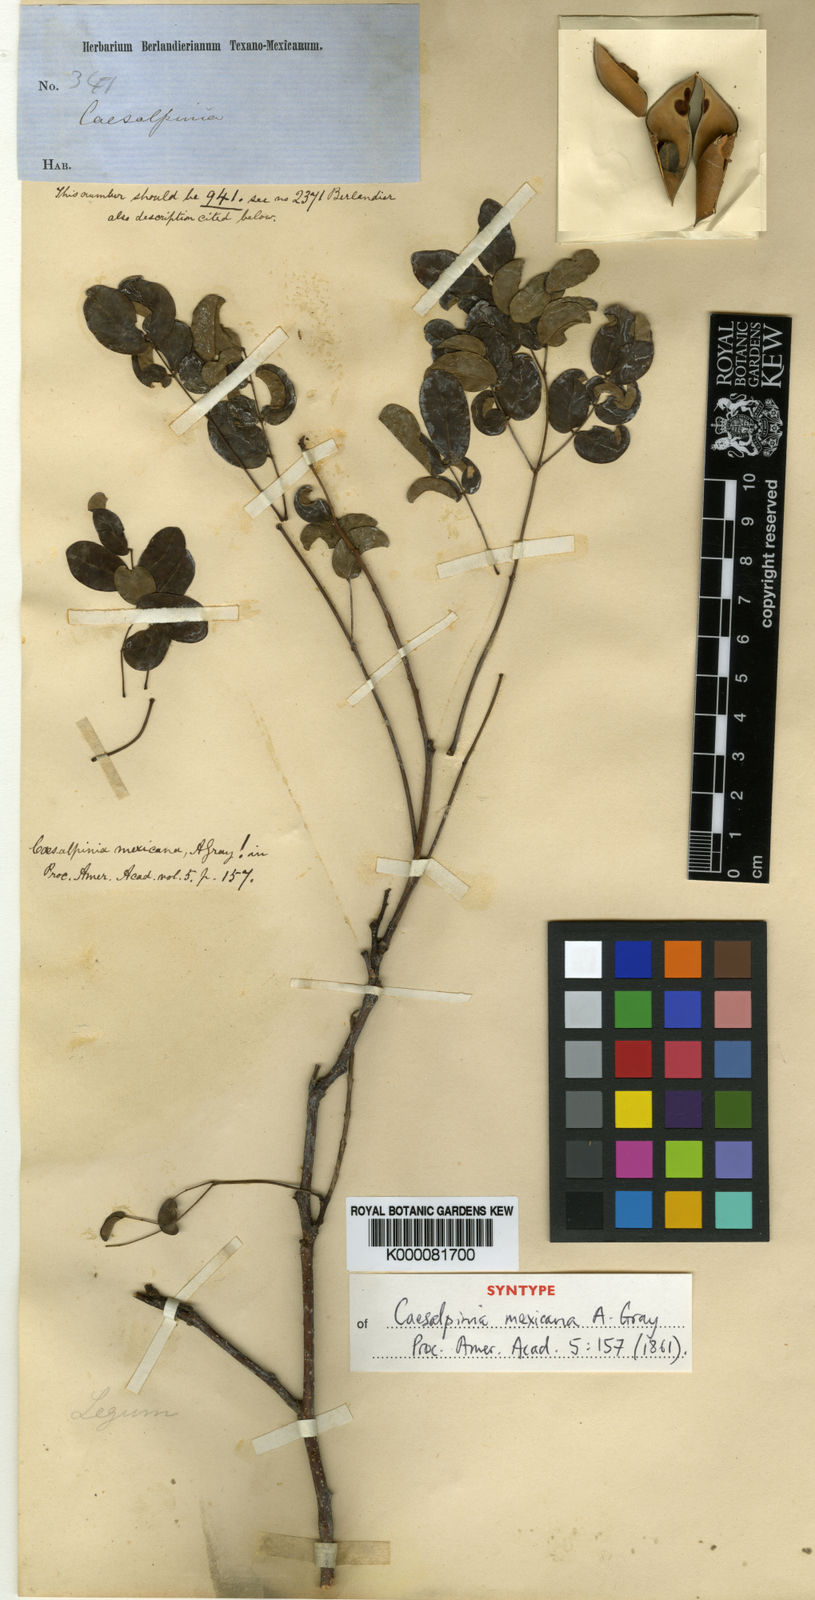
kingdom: Plantae
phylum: Tracheophyta
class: Magnoliopsida
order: Fabales
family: Fabaceae
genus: Erythrostemon
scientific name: Erythrostemon mexicanus
